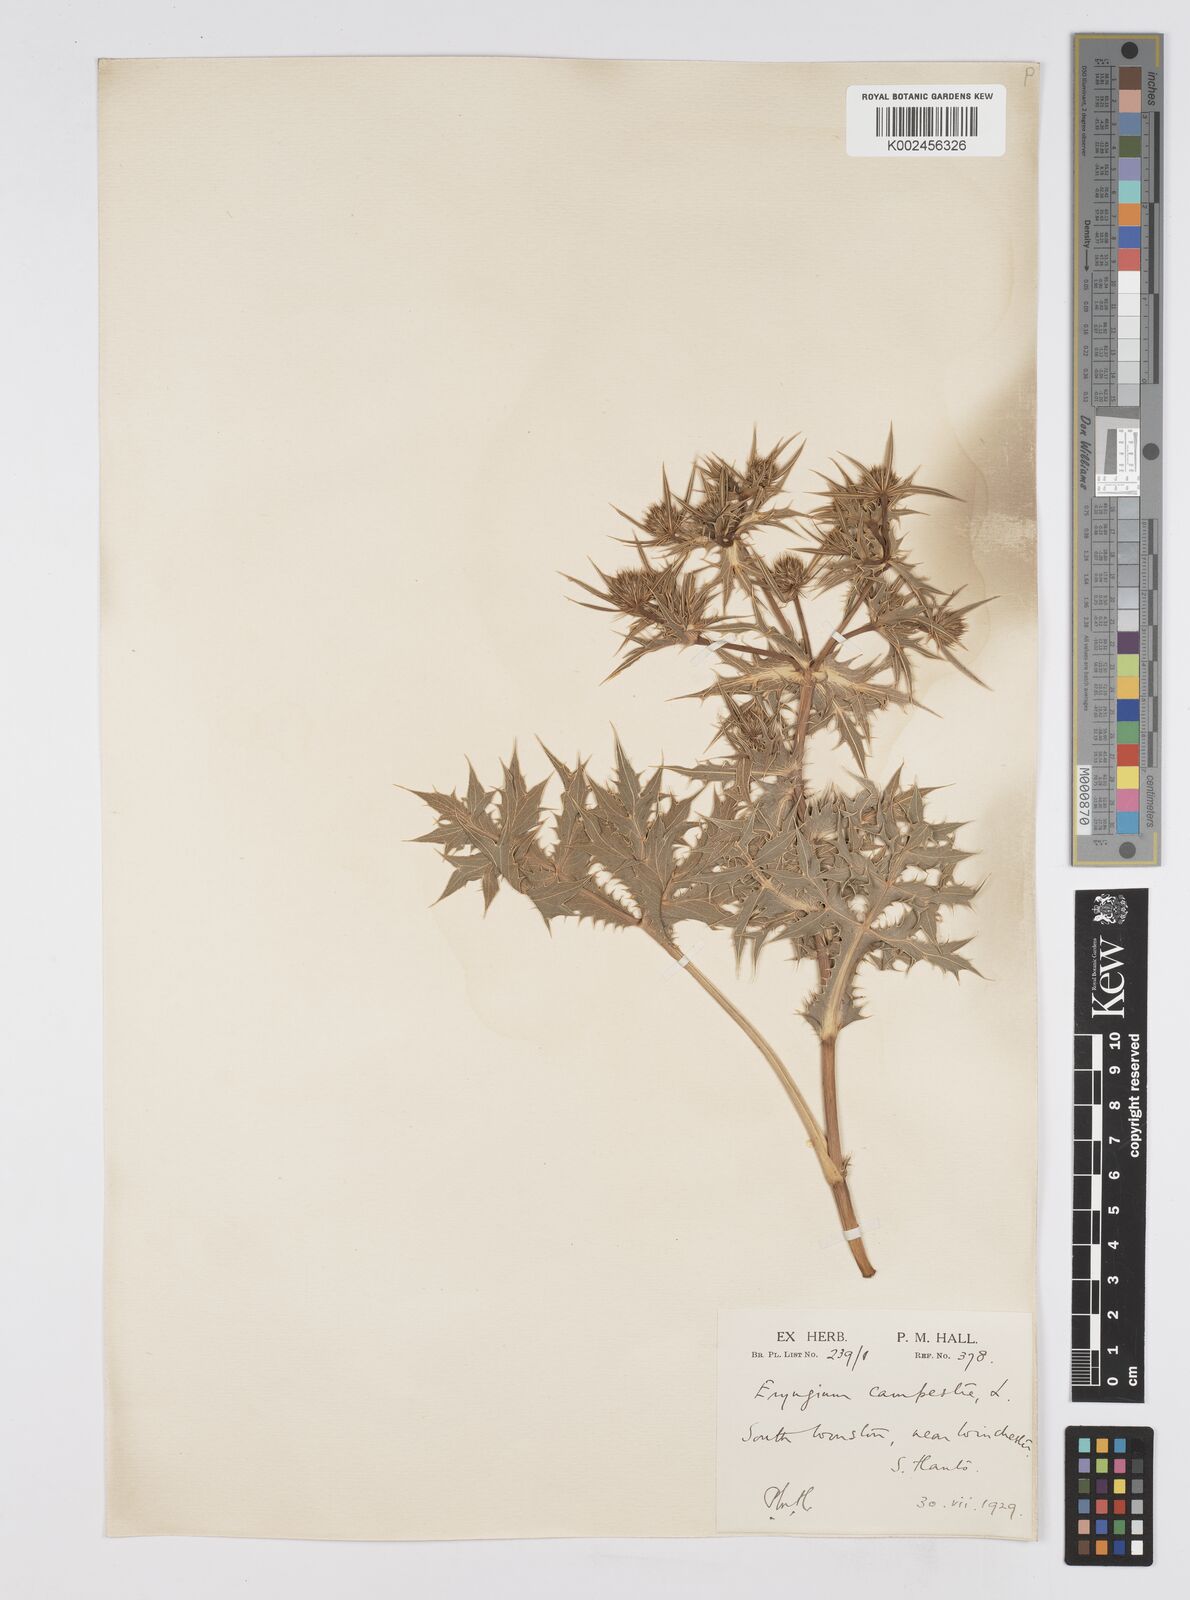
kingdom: Plantae
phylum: Tracheophyta
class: Magnoliopsida
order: Apiales
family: Apiaceae
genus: Eryngium
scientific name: Eryngium campestre
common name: Field eryngo
